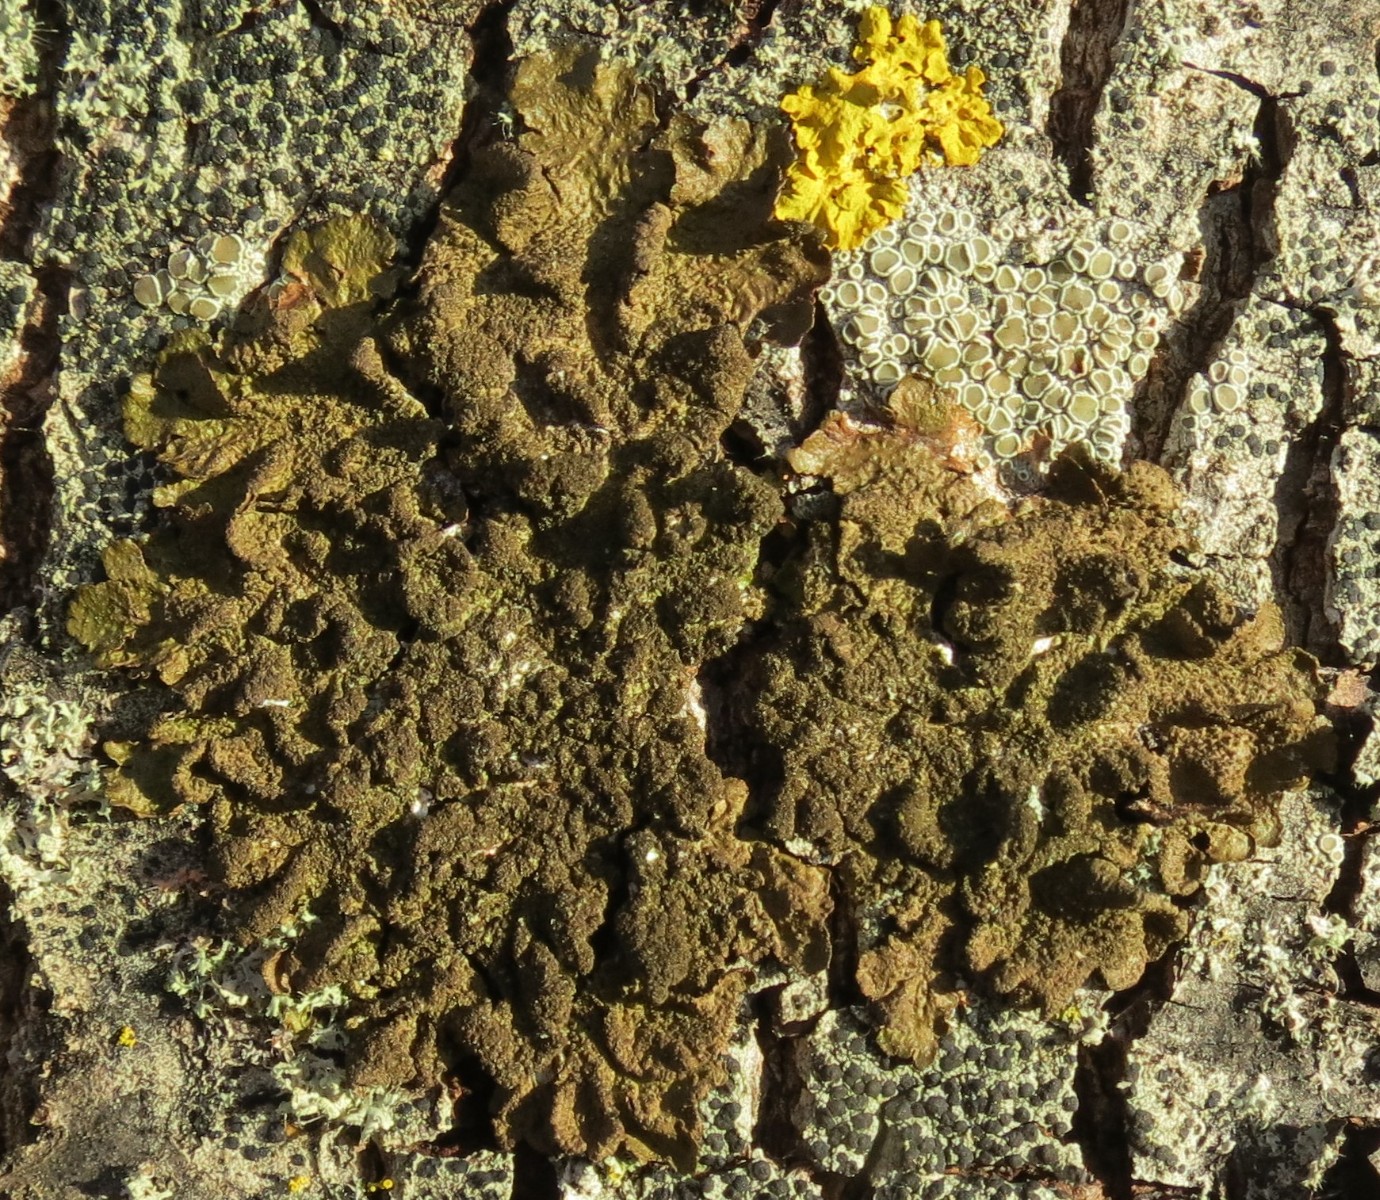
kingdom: Fungi
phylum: Ascomycota
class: Lecanoromycetes
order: Lecanorales
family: Parmeliaceae
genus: Melanelixia
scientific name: Melanelixia subaurifera
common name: guldpudret skållav
